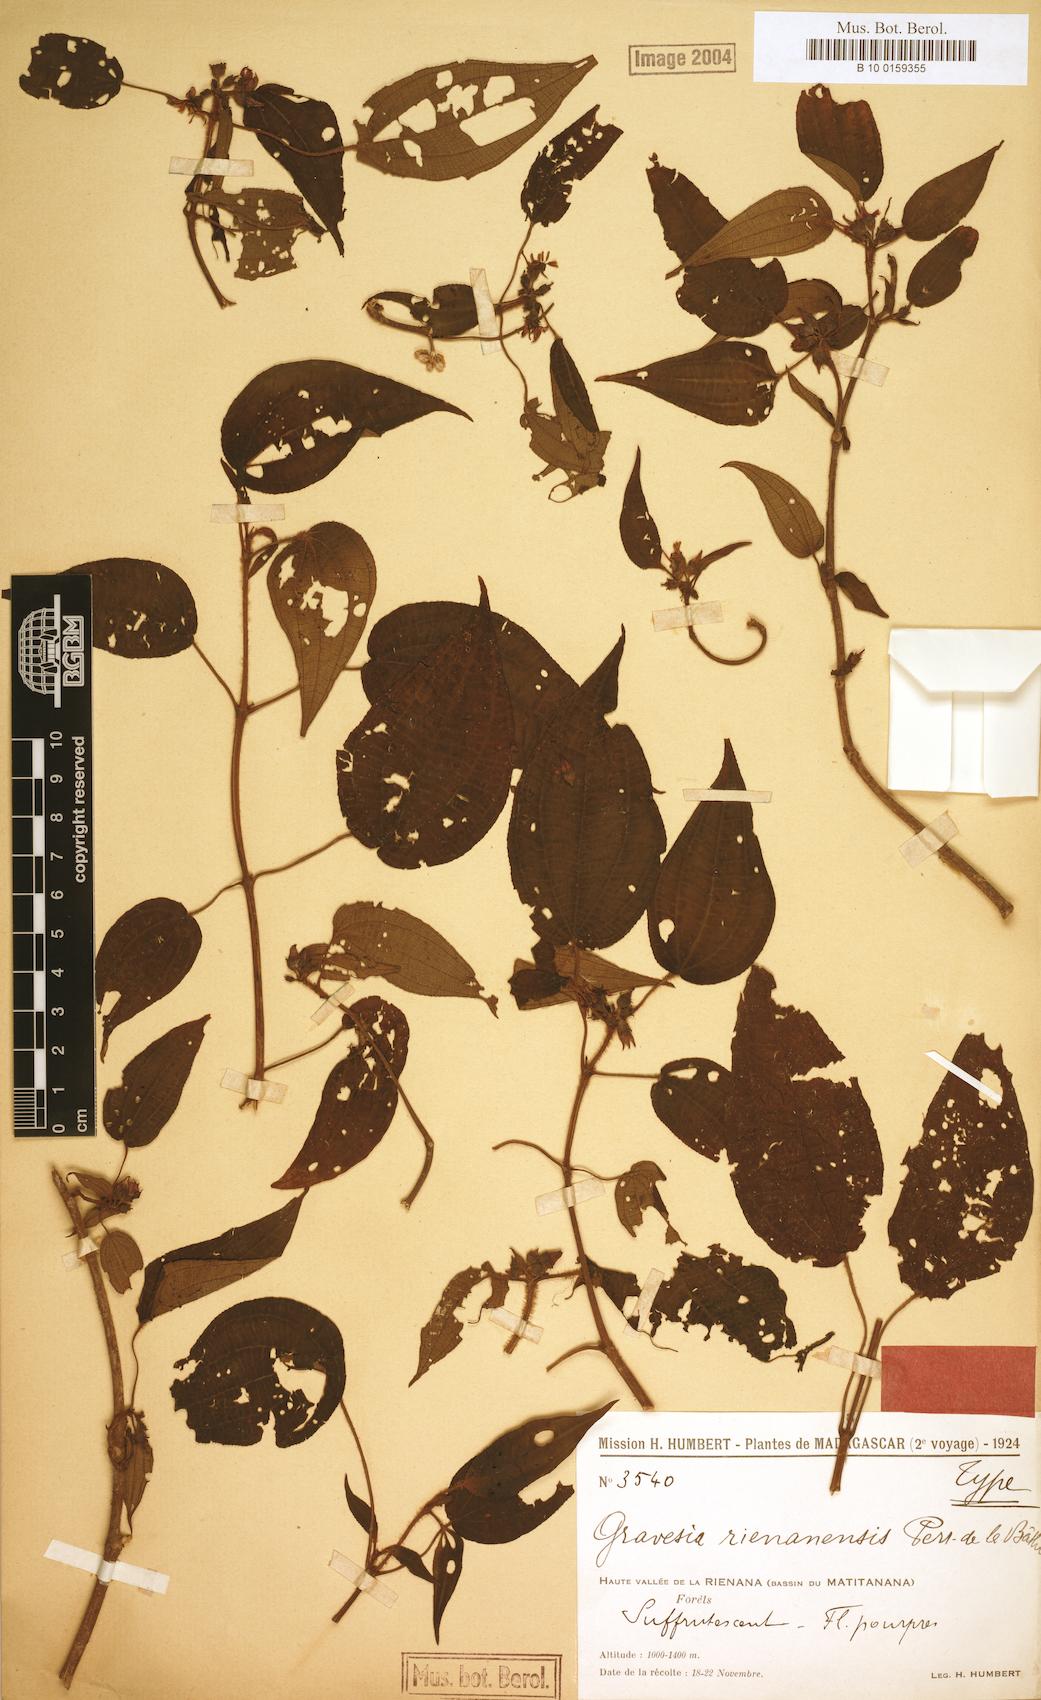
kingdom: Plantae
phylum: Tracheophyta
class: Magnoliopsida
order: Myrtales
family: Melastomataceae
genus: Gravesia
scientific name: Gravesia rienanensis
